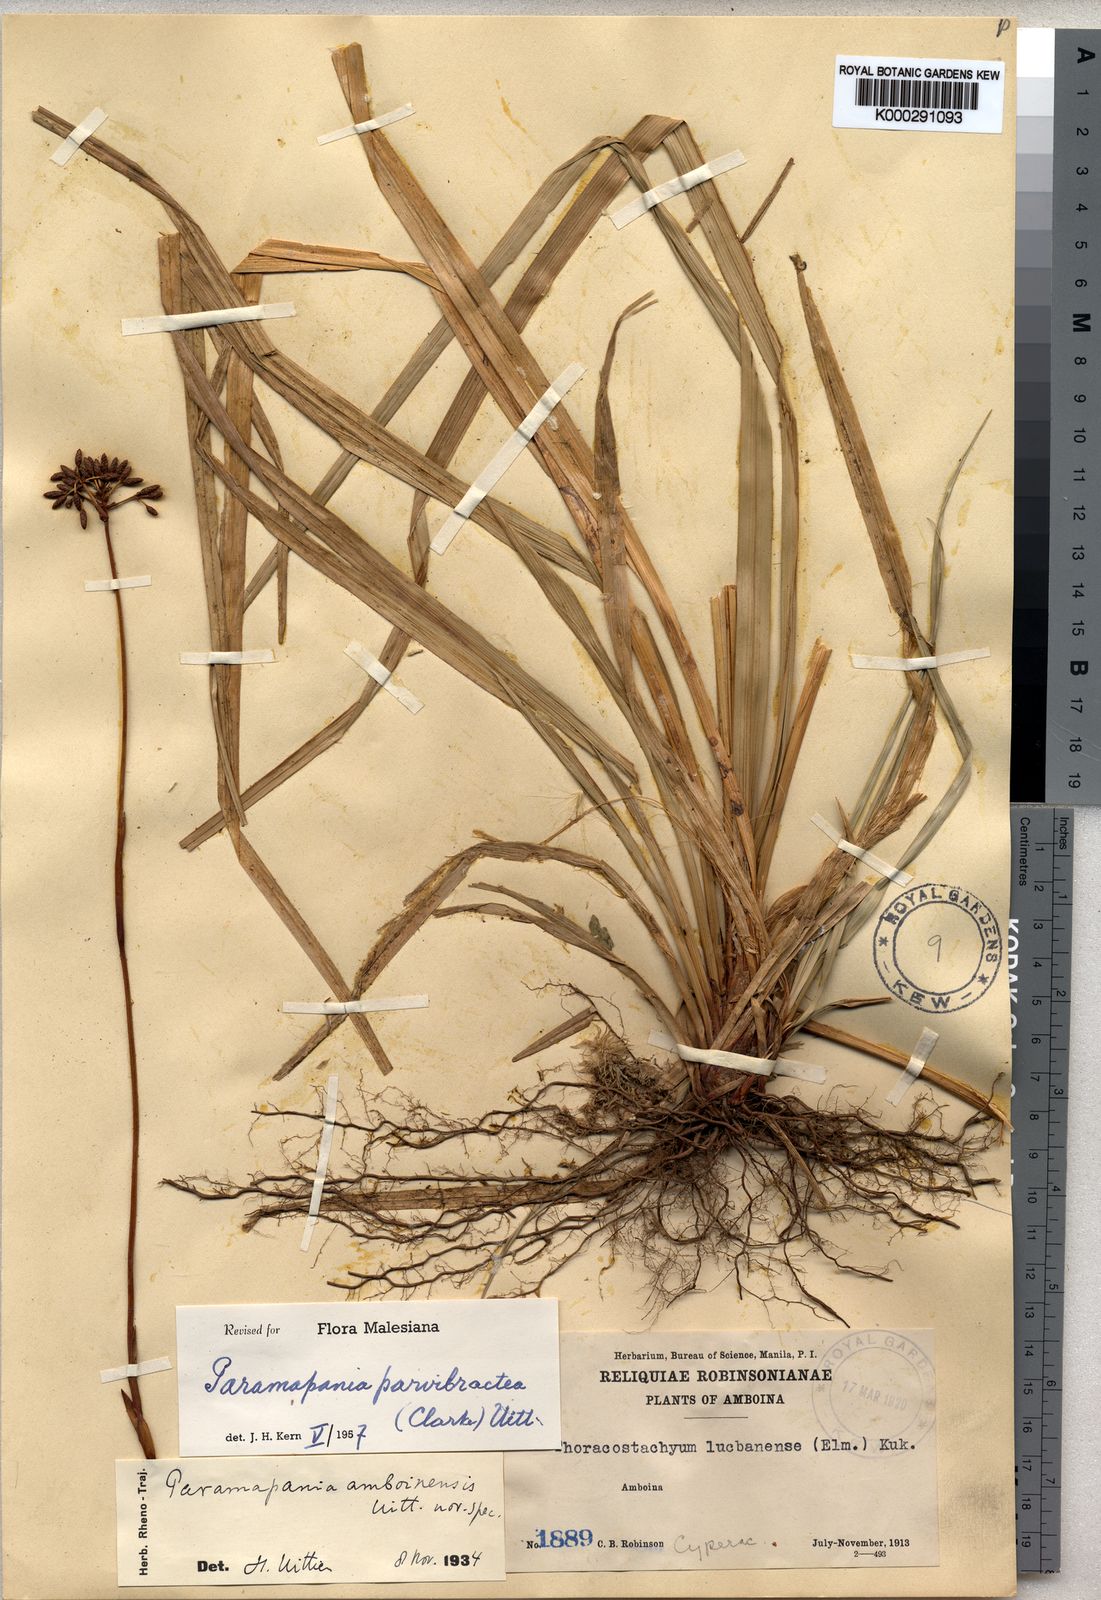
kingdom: Plantae
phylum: Tracheophyta
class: Liliopsida
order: Poales
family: Cyperaceae
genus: Paramapania
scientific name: Paramapania parvibractea
